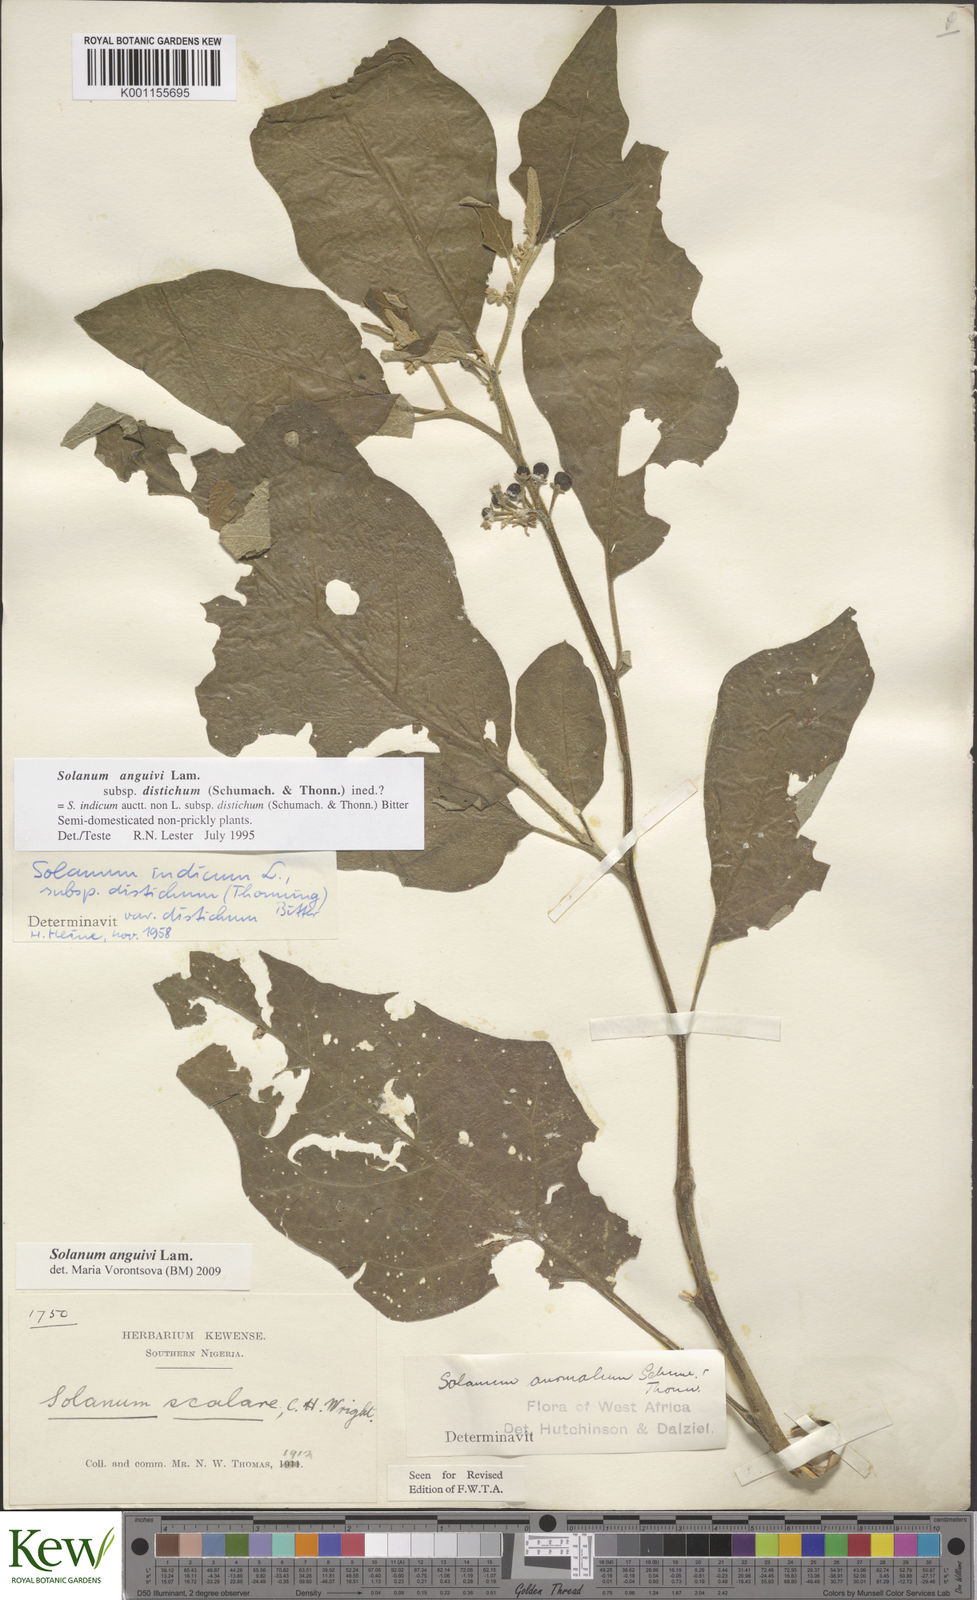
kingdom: Plantae
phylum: Tracheophyta
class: Magnoliopsida
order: Solanales
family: Solanaceae
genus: Solanum
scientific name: Solanum anguivi
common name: Forest bitterberry
